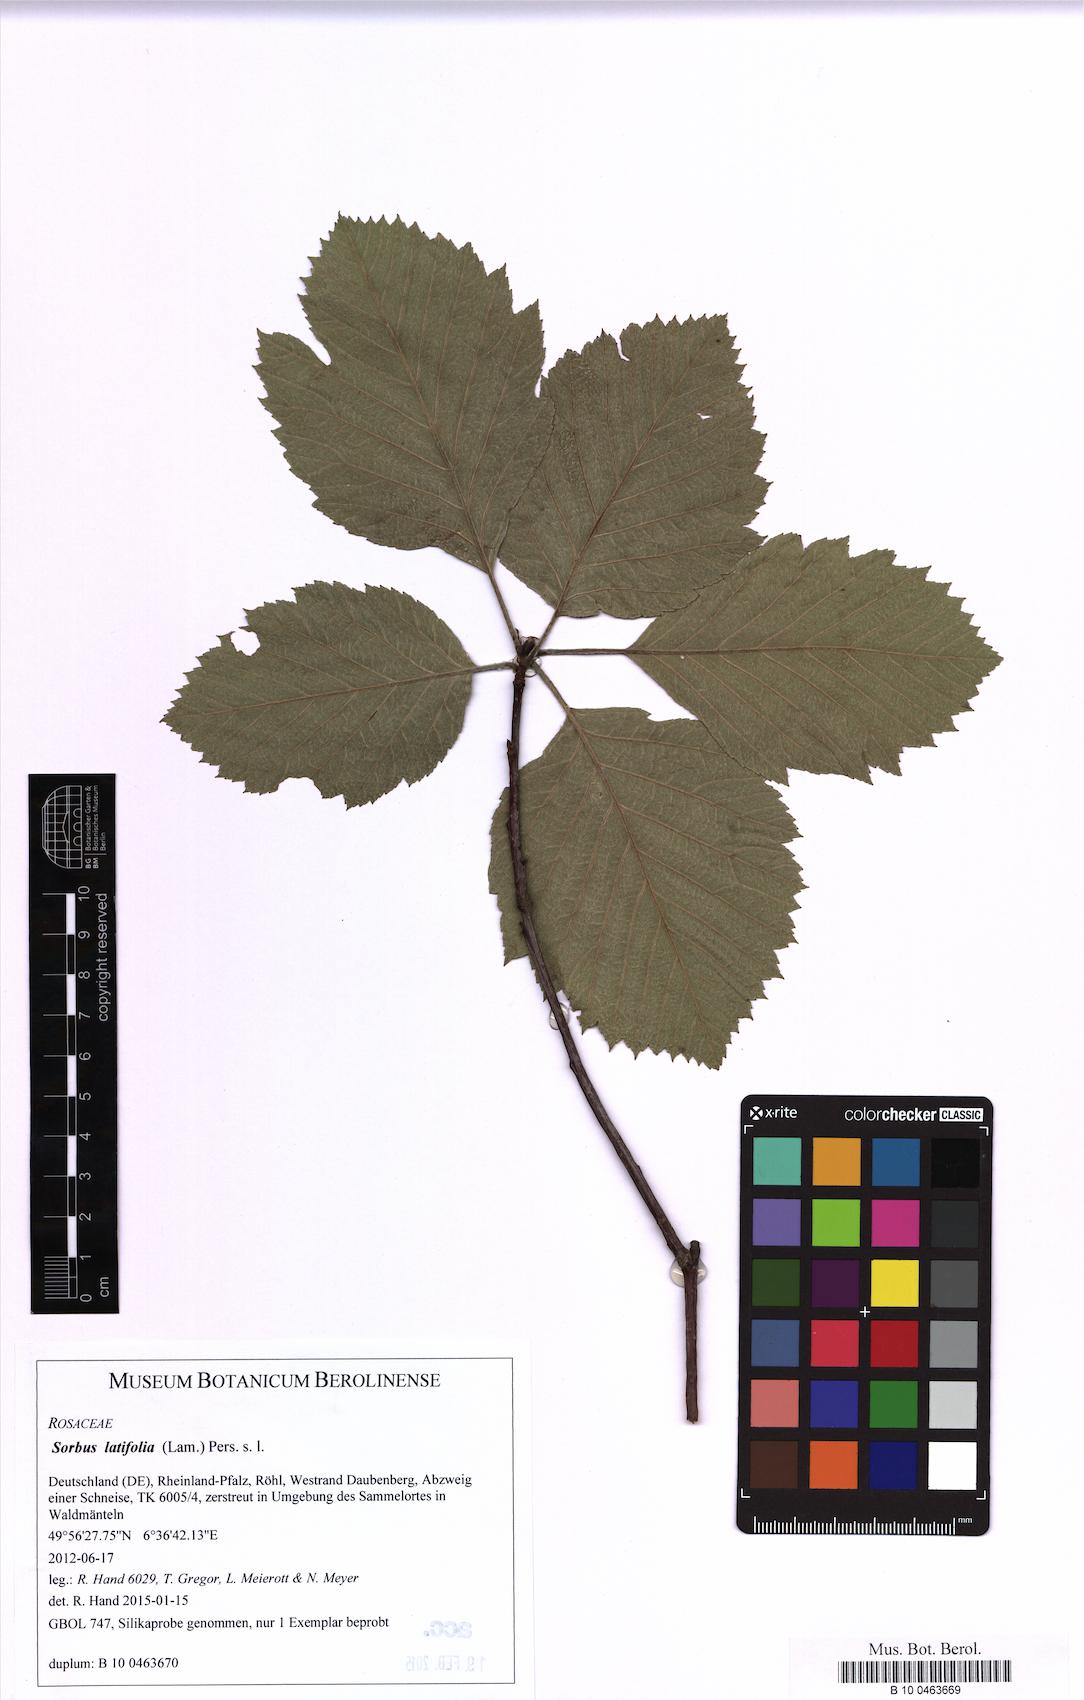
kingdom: Plantae
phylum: Tracheophyta
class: Magnoliopsida
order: Asterales
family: Asteraceae
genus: Tragopogon
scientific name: Tragopogon orientalis
